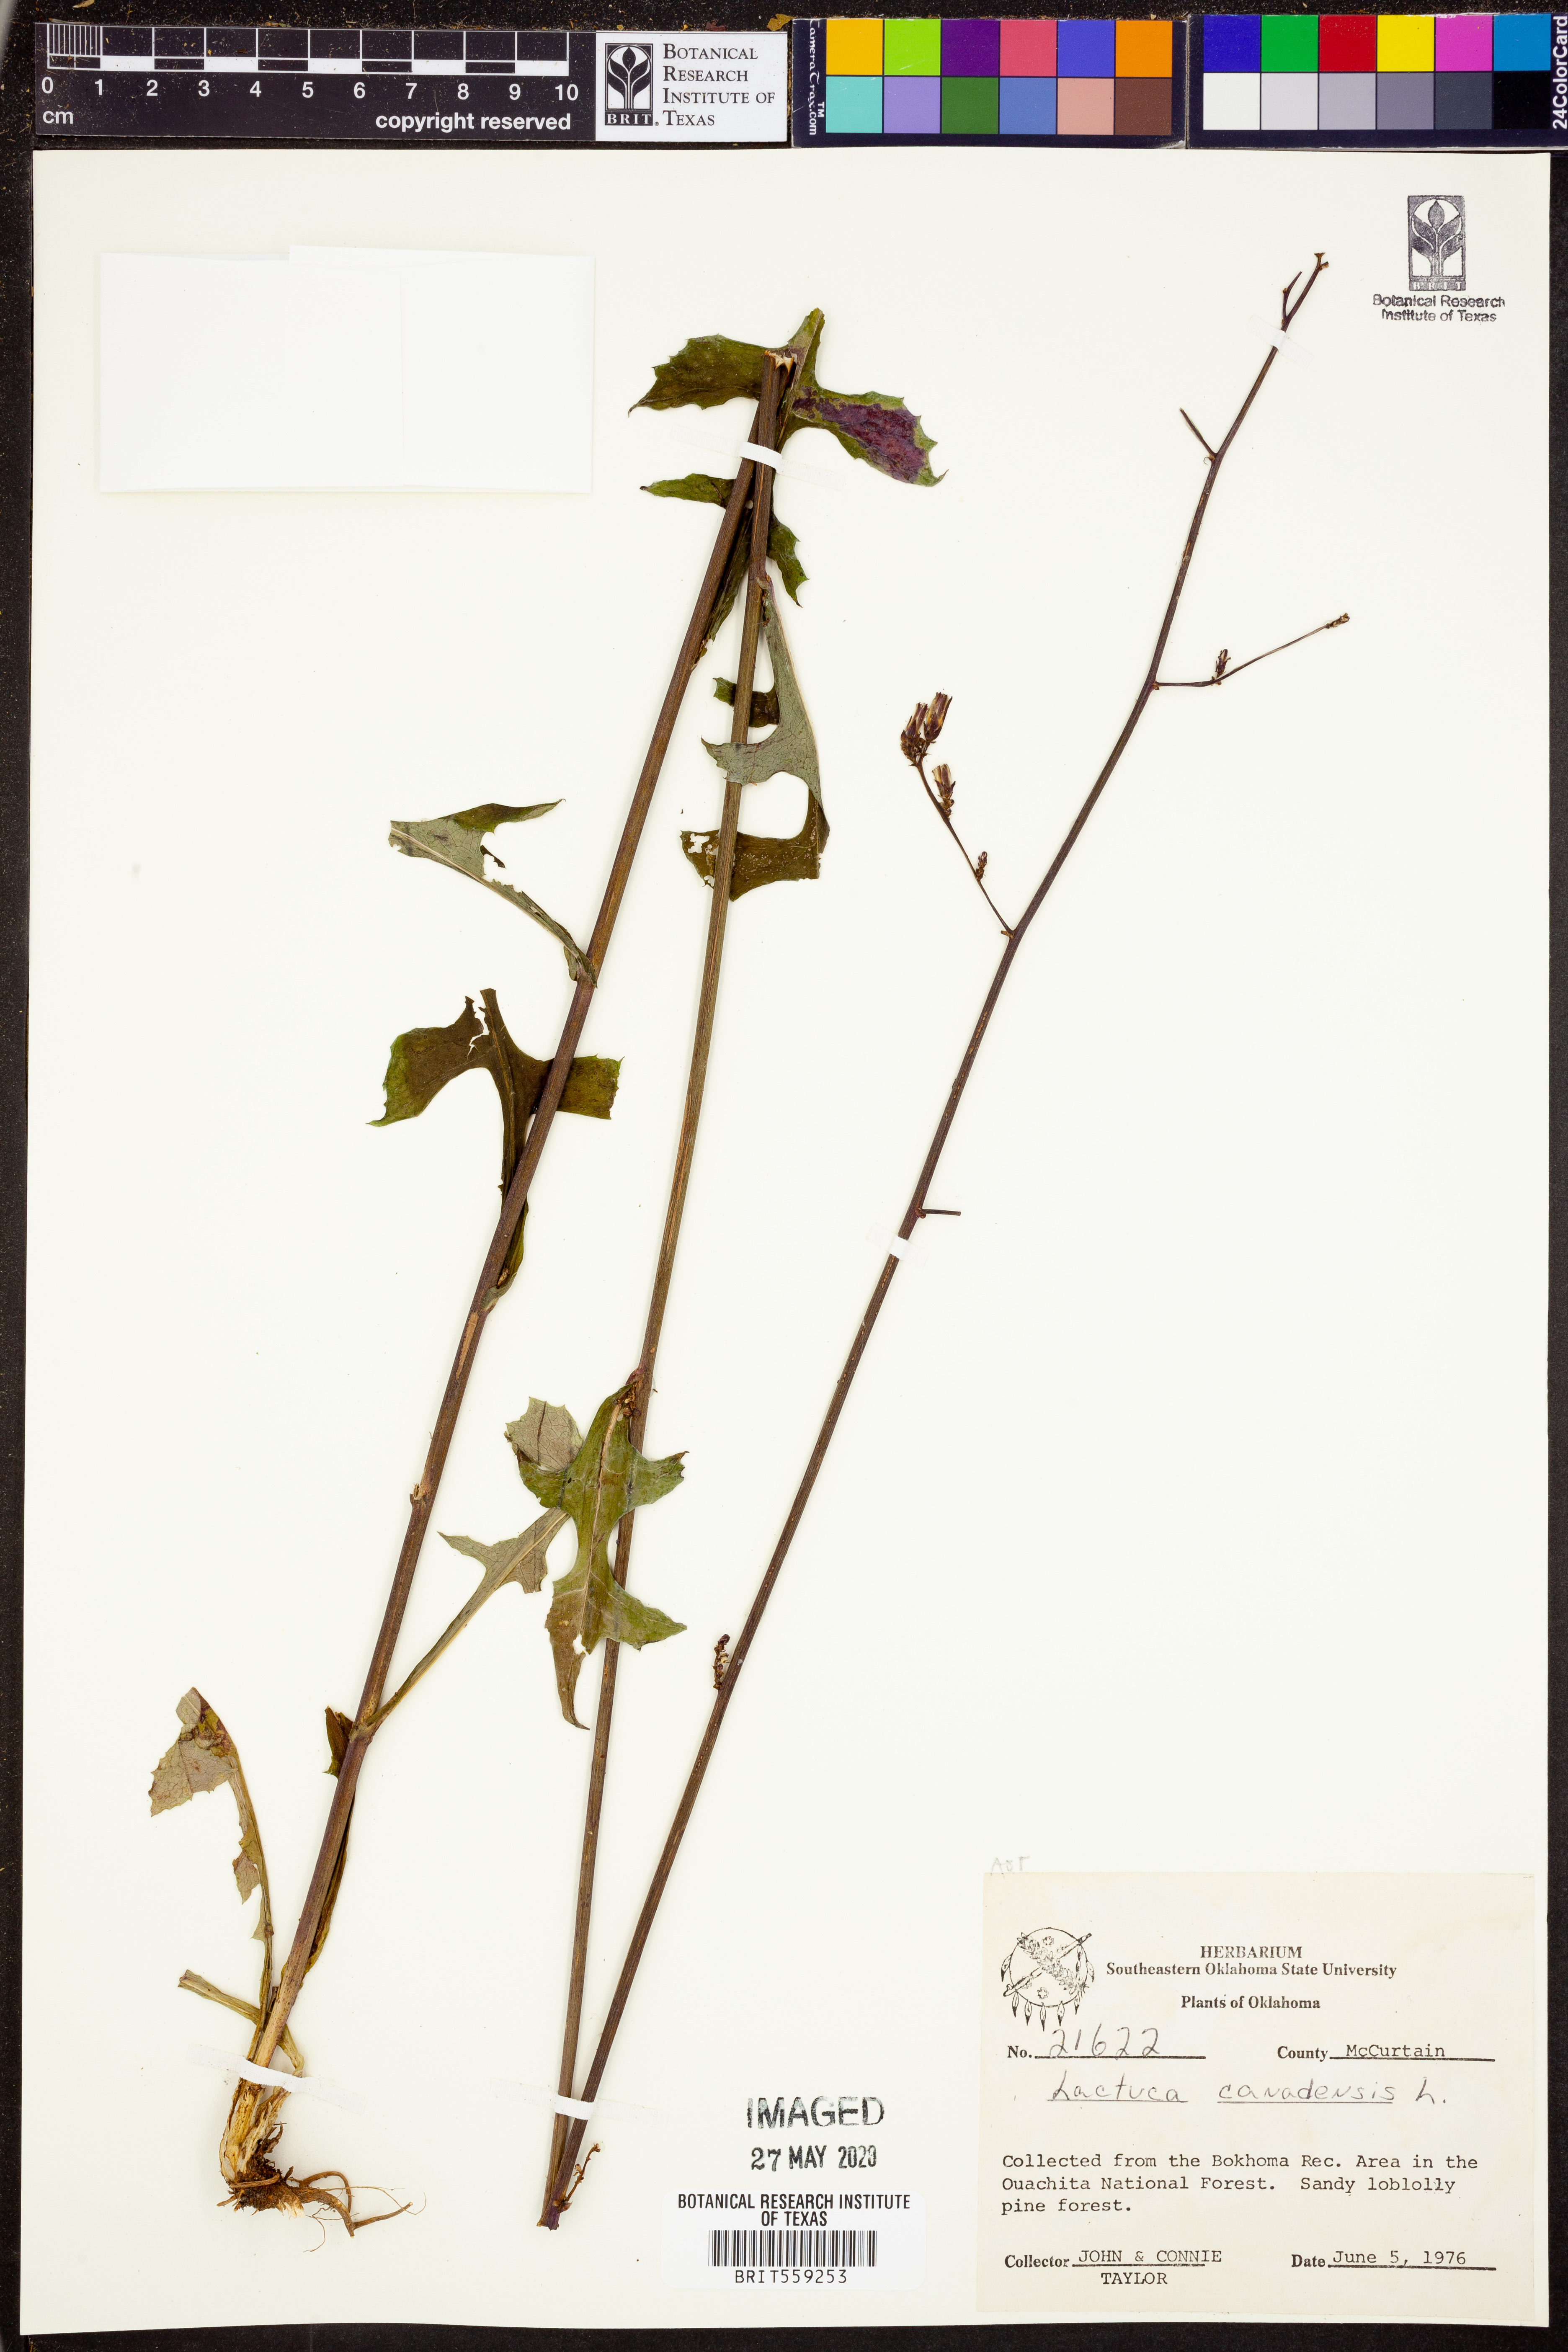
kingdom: Plantae
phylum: Tracheophyta
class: Magnoliopsida
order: Asterales
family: Asteraceae
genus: Lactuca
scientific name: Lactuca canadensis
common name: Canada lettuce
